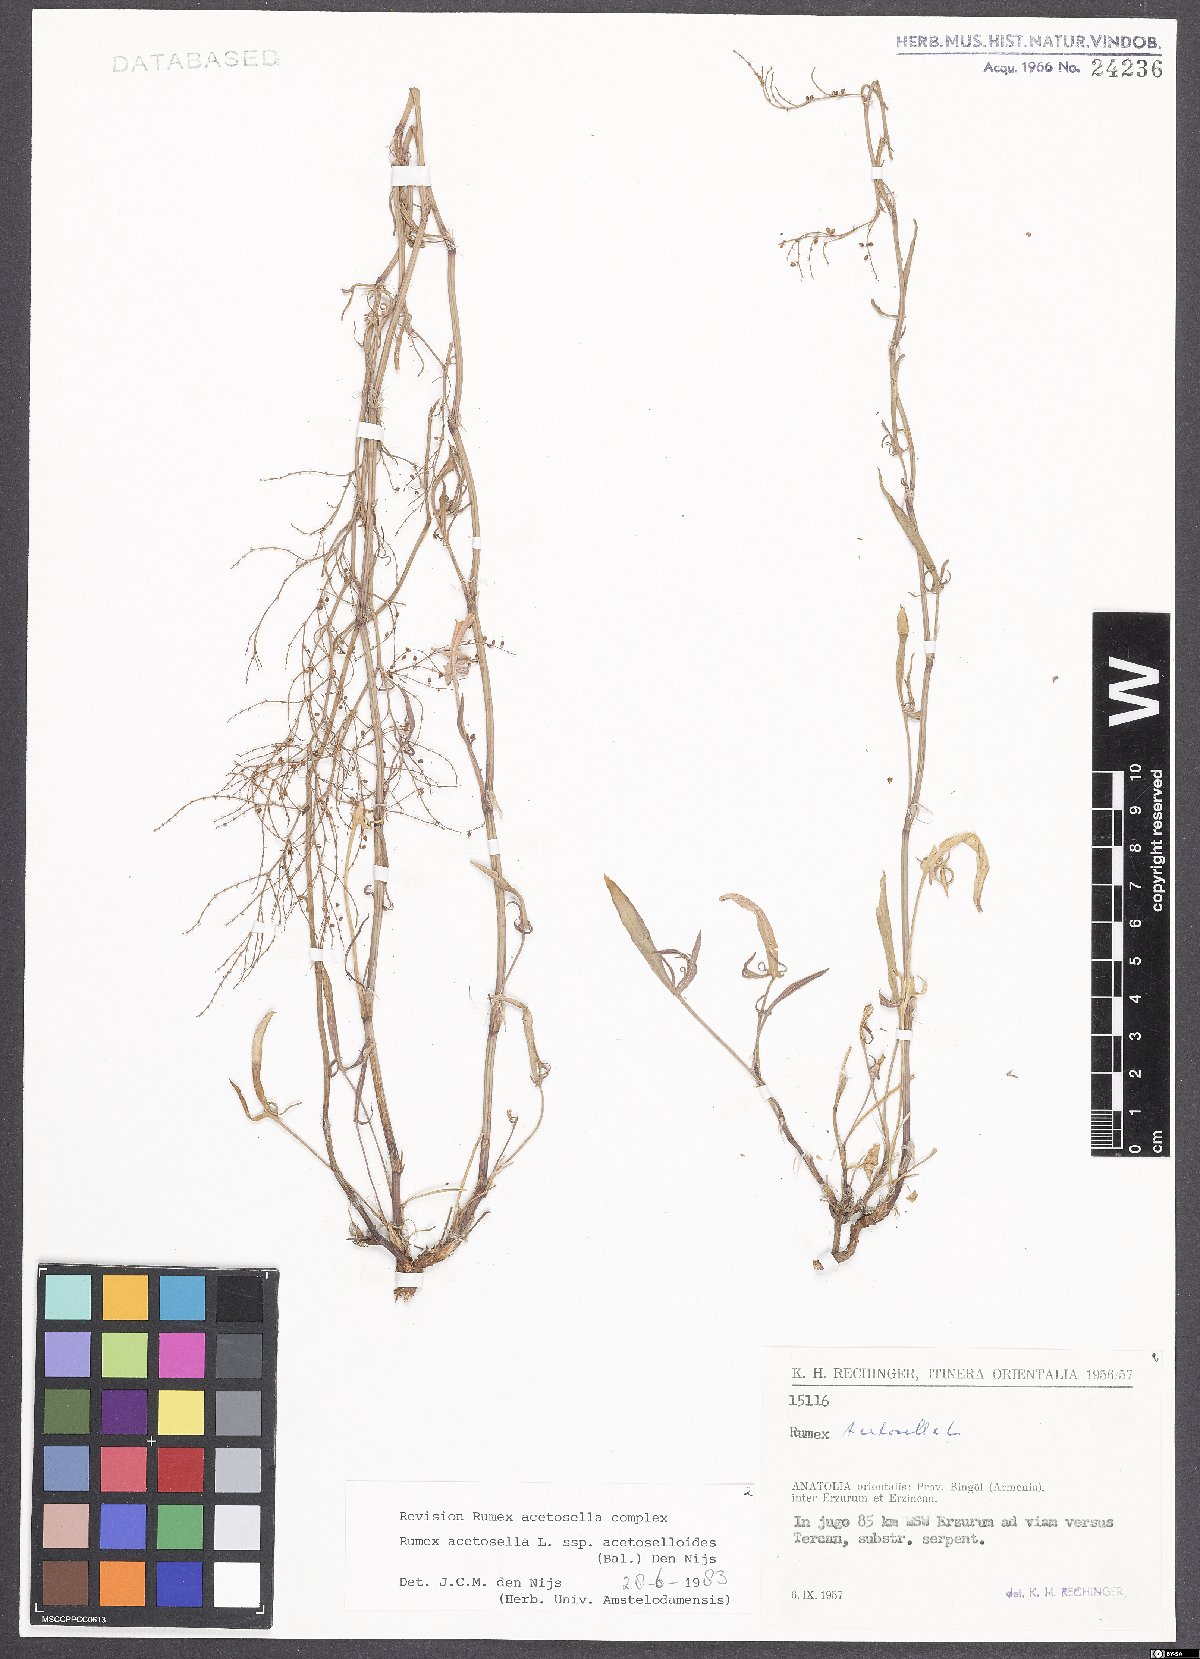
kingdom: Plantae
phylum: Tracheophyta
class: Magnoliopsida
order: Caryophyllales
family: Polygonaceae
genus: Rumex
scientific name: Rumex acetosella
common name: Common sheep sorrel
